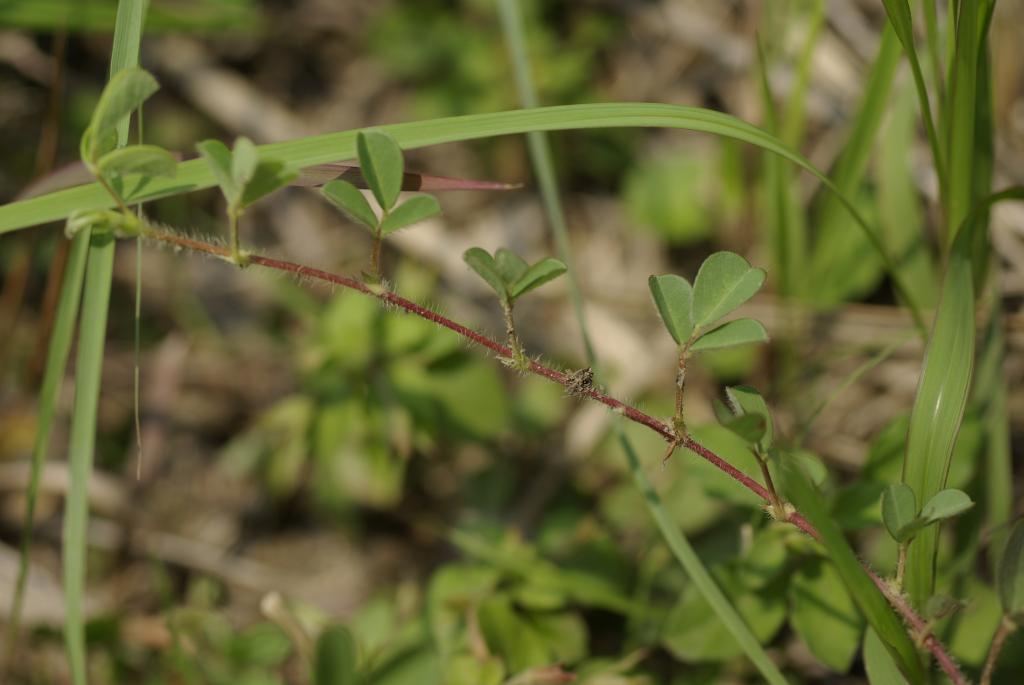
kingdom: Plantae
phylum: Tracheophyta
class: Magnoliopsida
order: Fabales
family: Fabaceae
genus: Grona
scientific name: Grona heterophylla
